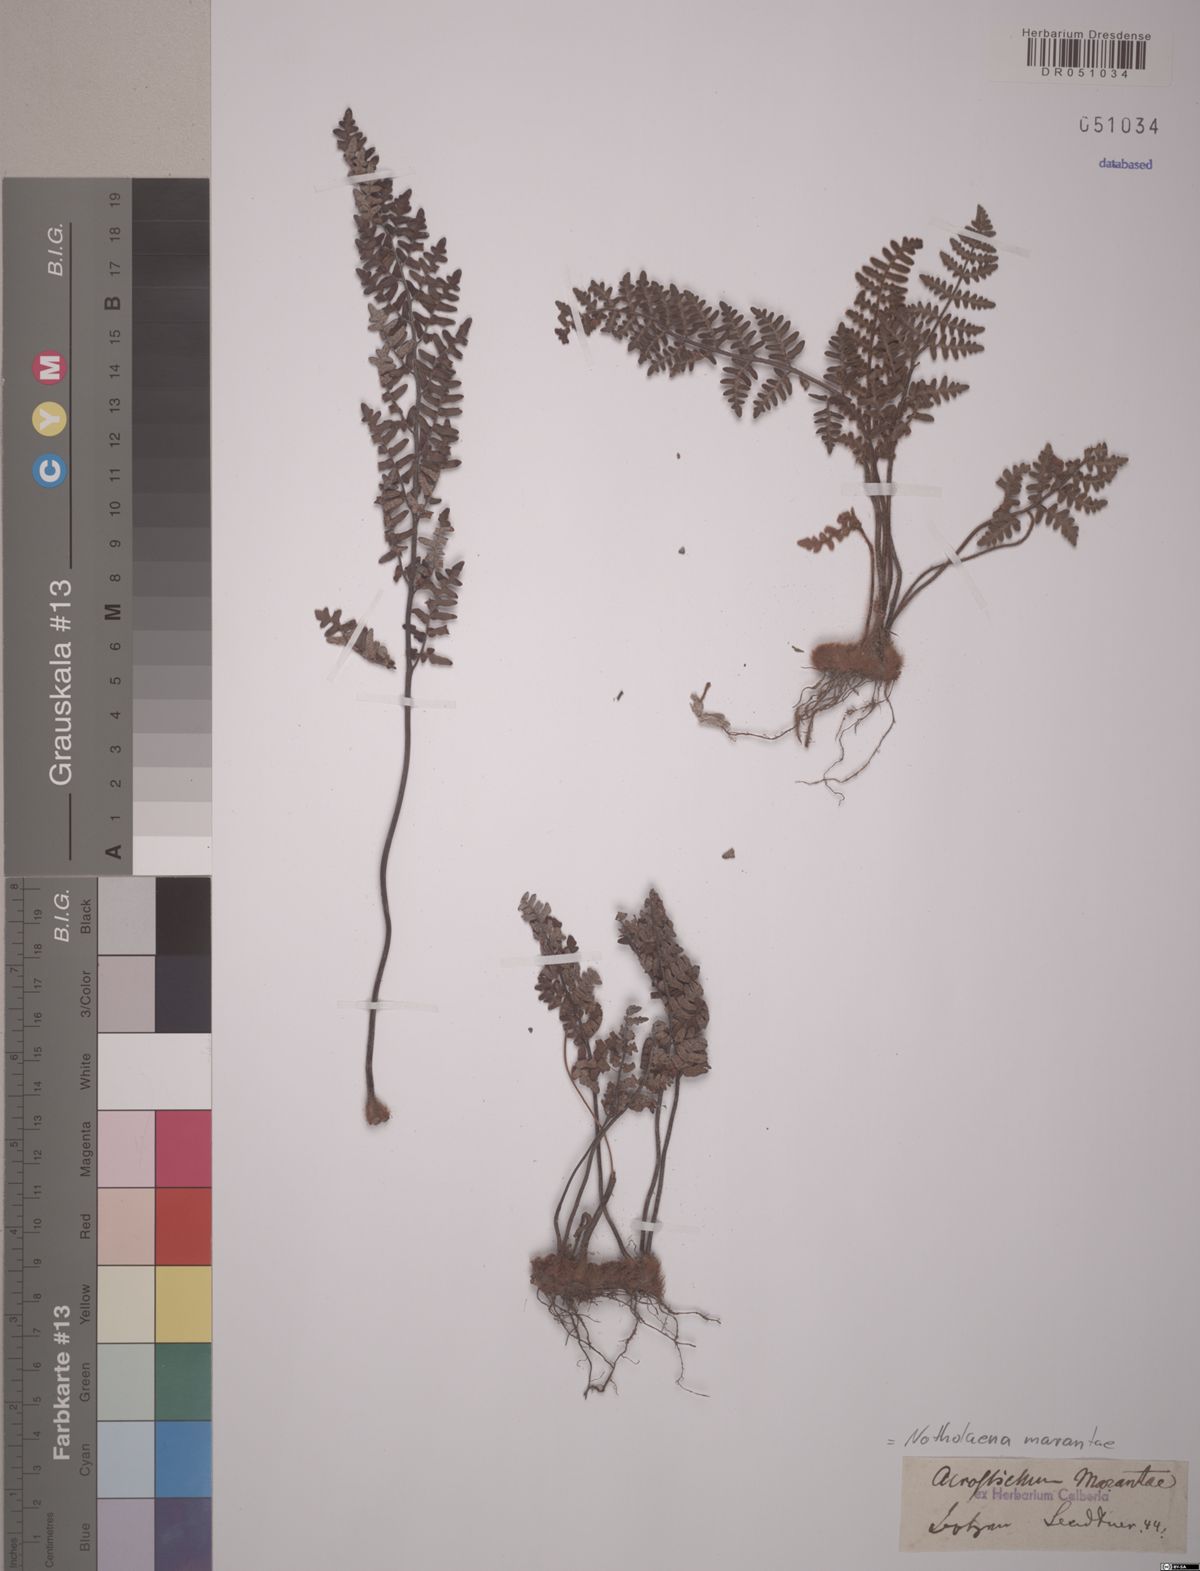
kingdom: Plantae
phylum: Tracheophyta
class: Polypodiopsida
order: Polypodiales
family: Pteridaceae
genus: Paragymnopteris
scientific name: Paragymnopteris marantae
